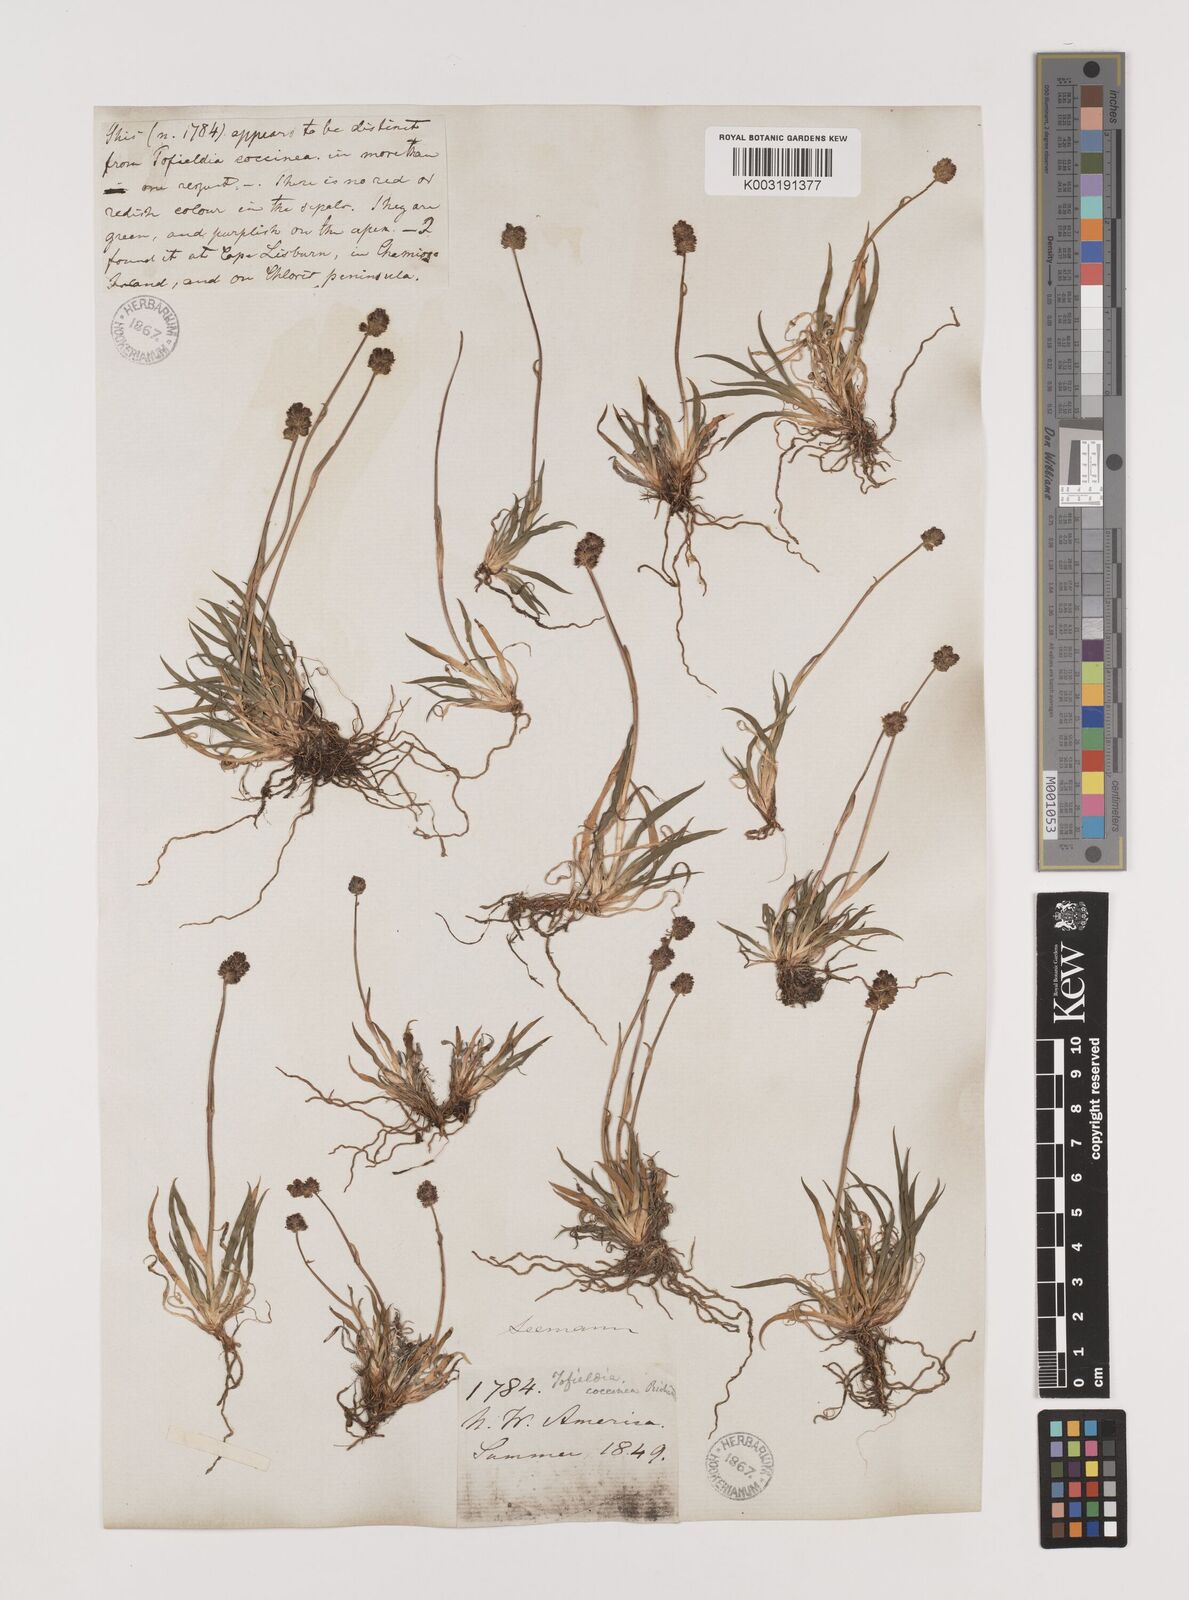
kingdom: Plantae
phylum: Tracheophyta
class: Liliopsida
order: Alismatales
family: Tofieldiaceae
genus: Tofieldia
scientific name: Tofieldia coccinea
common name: Northern false asphodel
